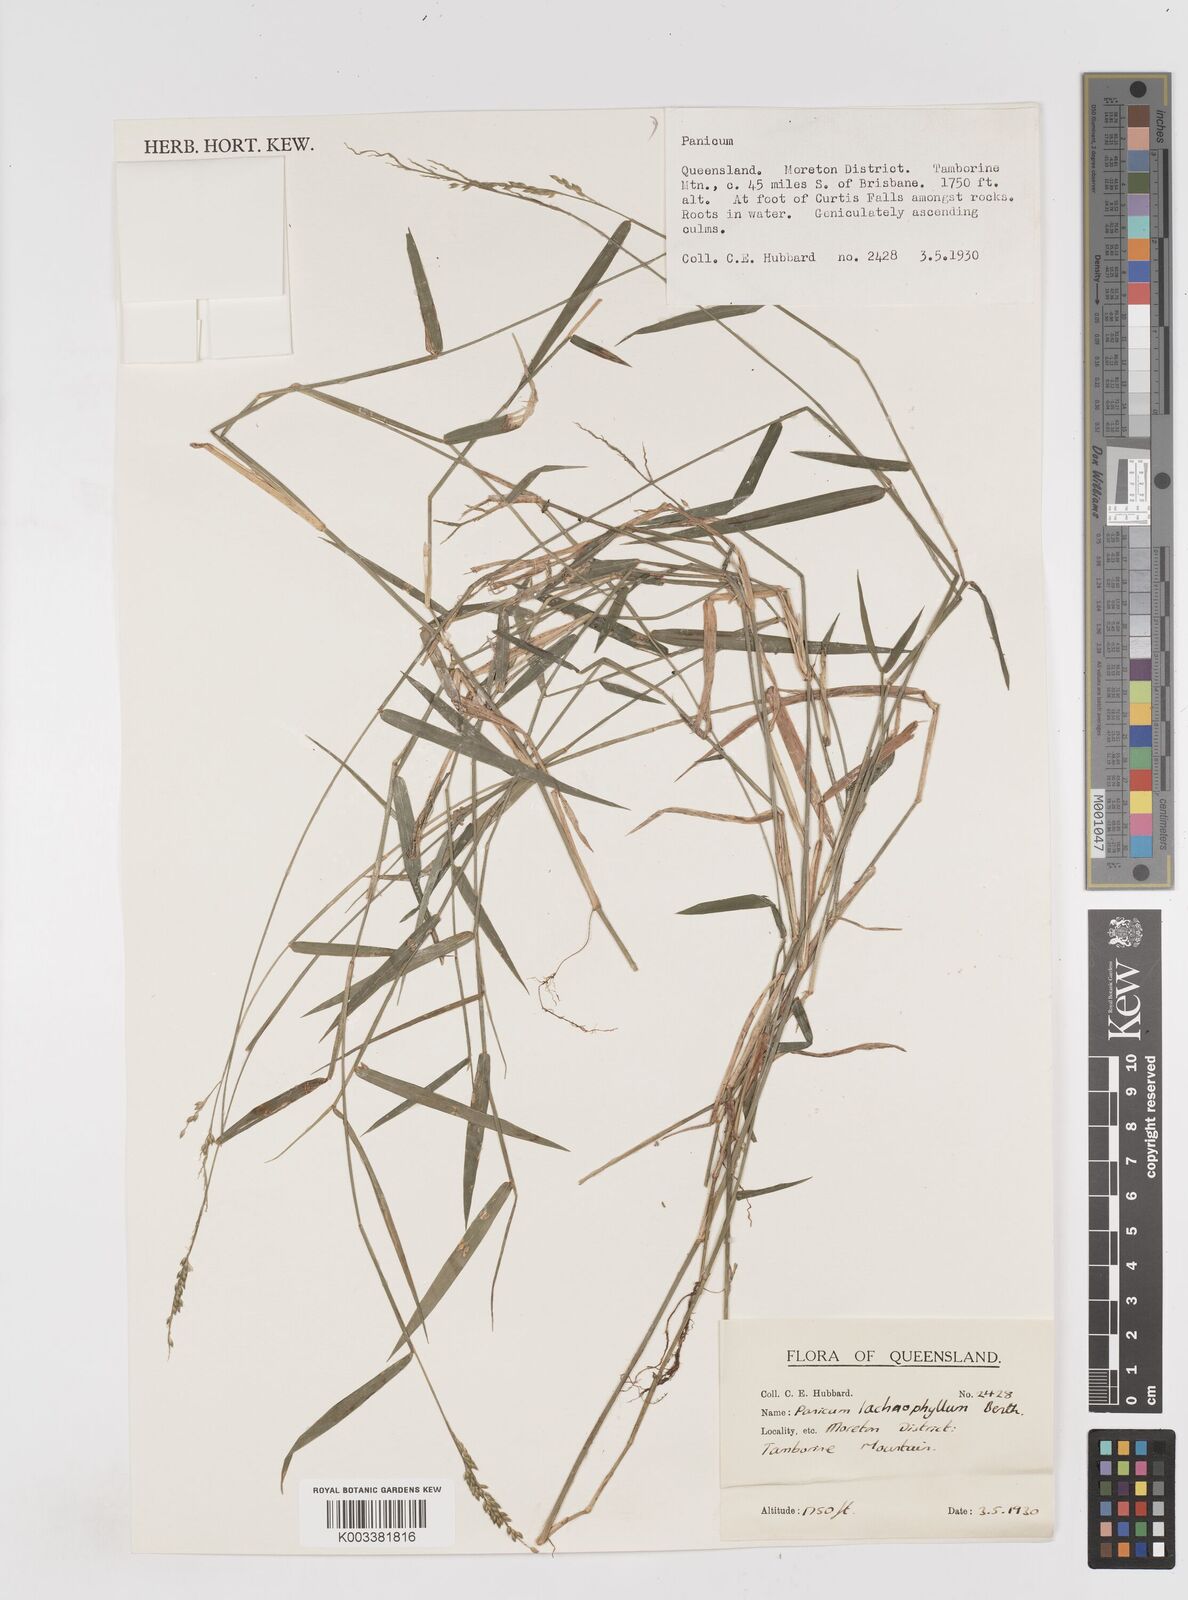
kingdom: Plantae
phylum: Tracheophyta
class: Liliopsida
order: Poales
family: Poaceae
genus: Entolasia
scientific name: Entolasia
